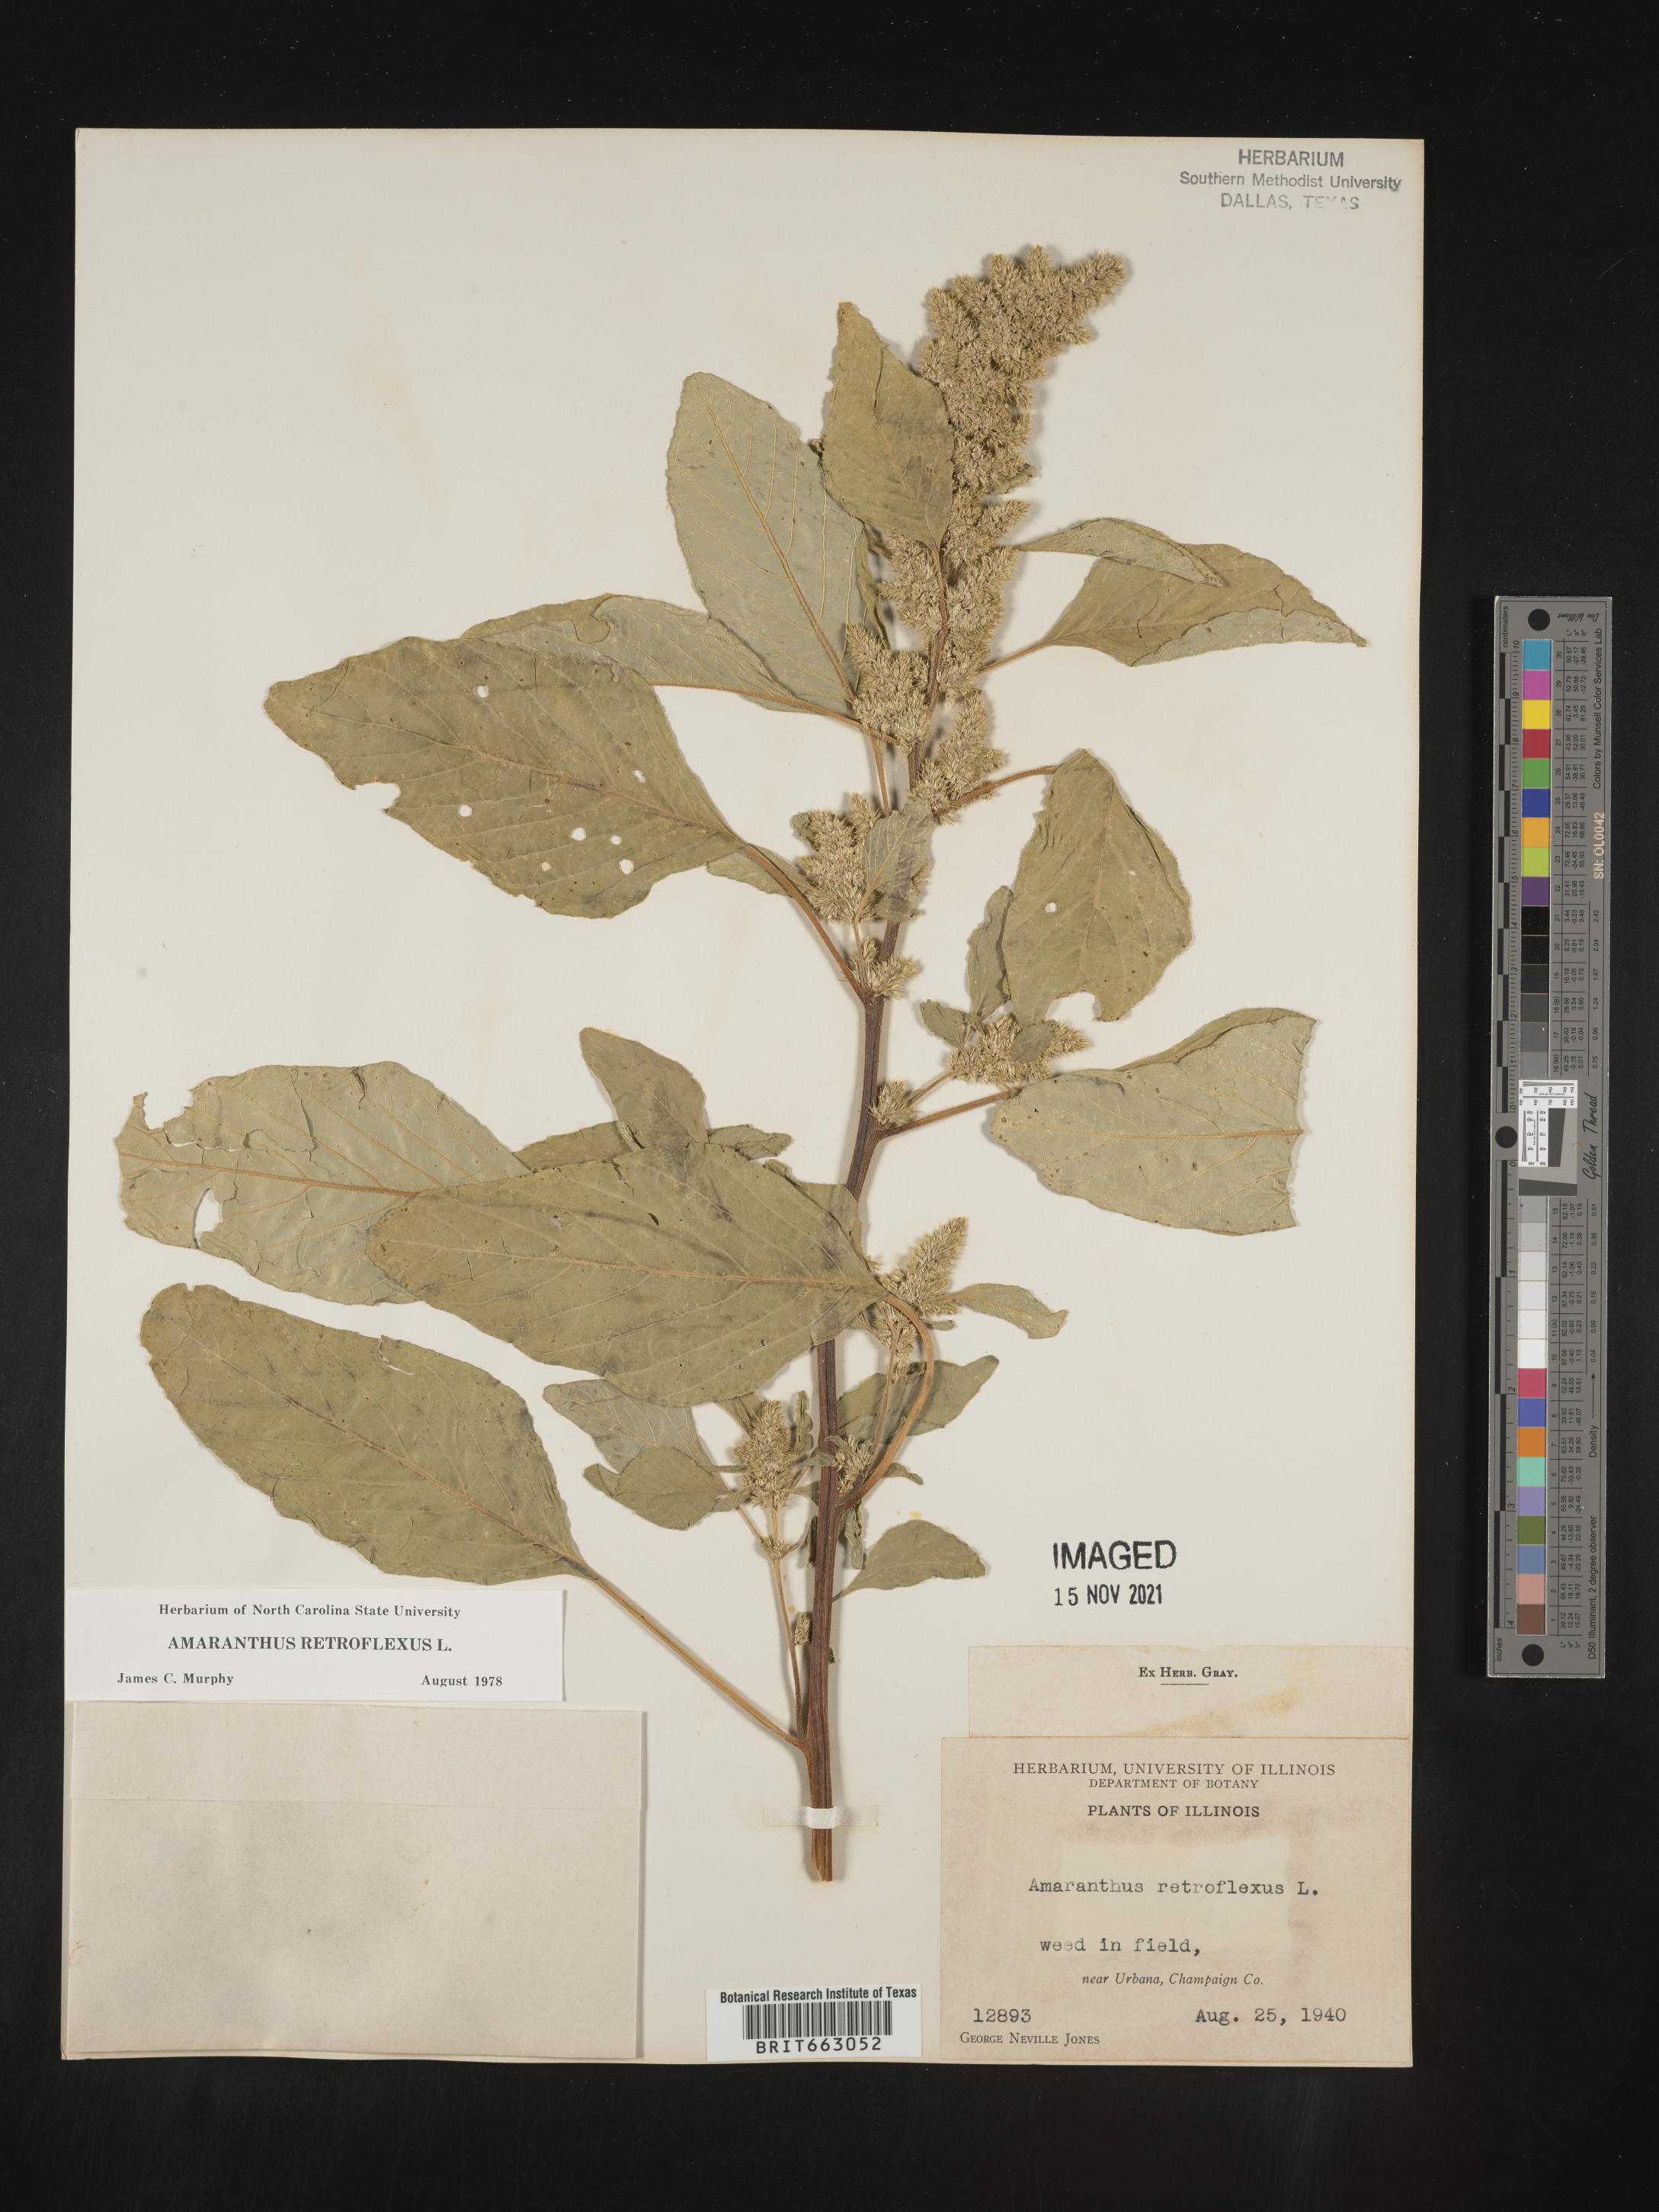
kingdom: Plantae
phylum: Tracheophyta
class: Magnoliopsida
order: Caryophyllales
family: Amaranthaceae
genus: Amaranthus
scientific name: Amaranthus retroflexus
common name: Redroot amaranth
